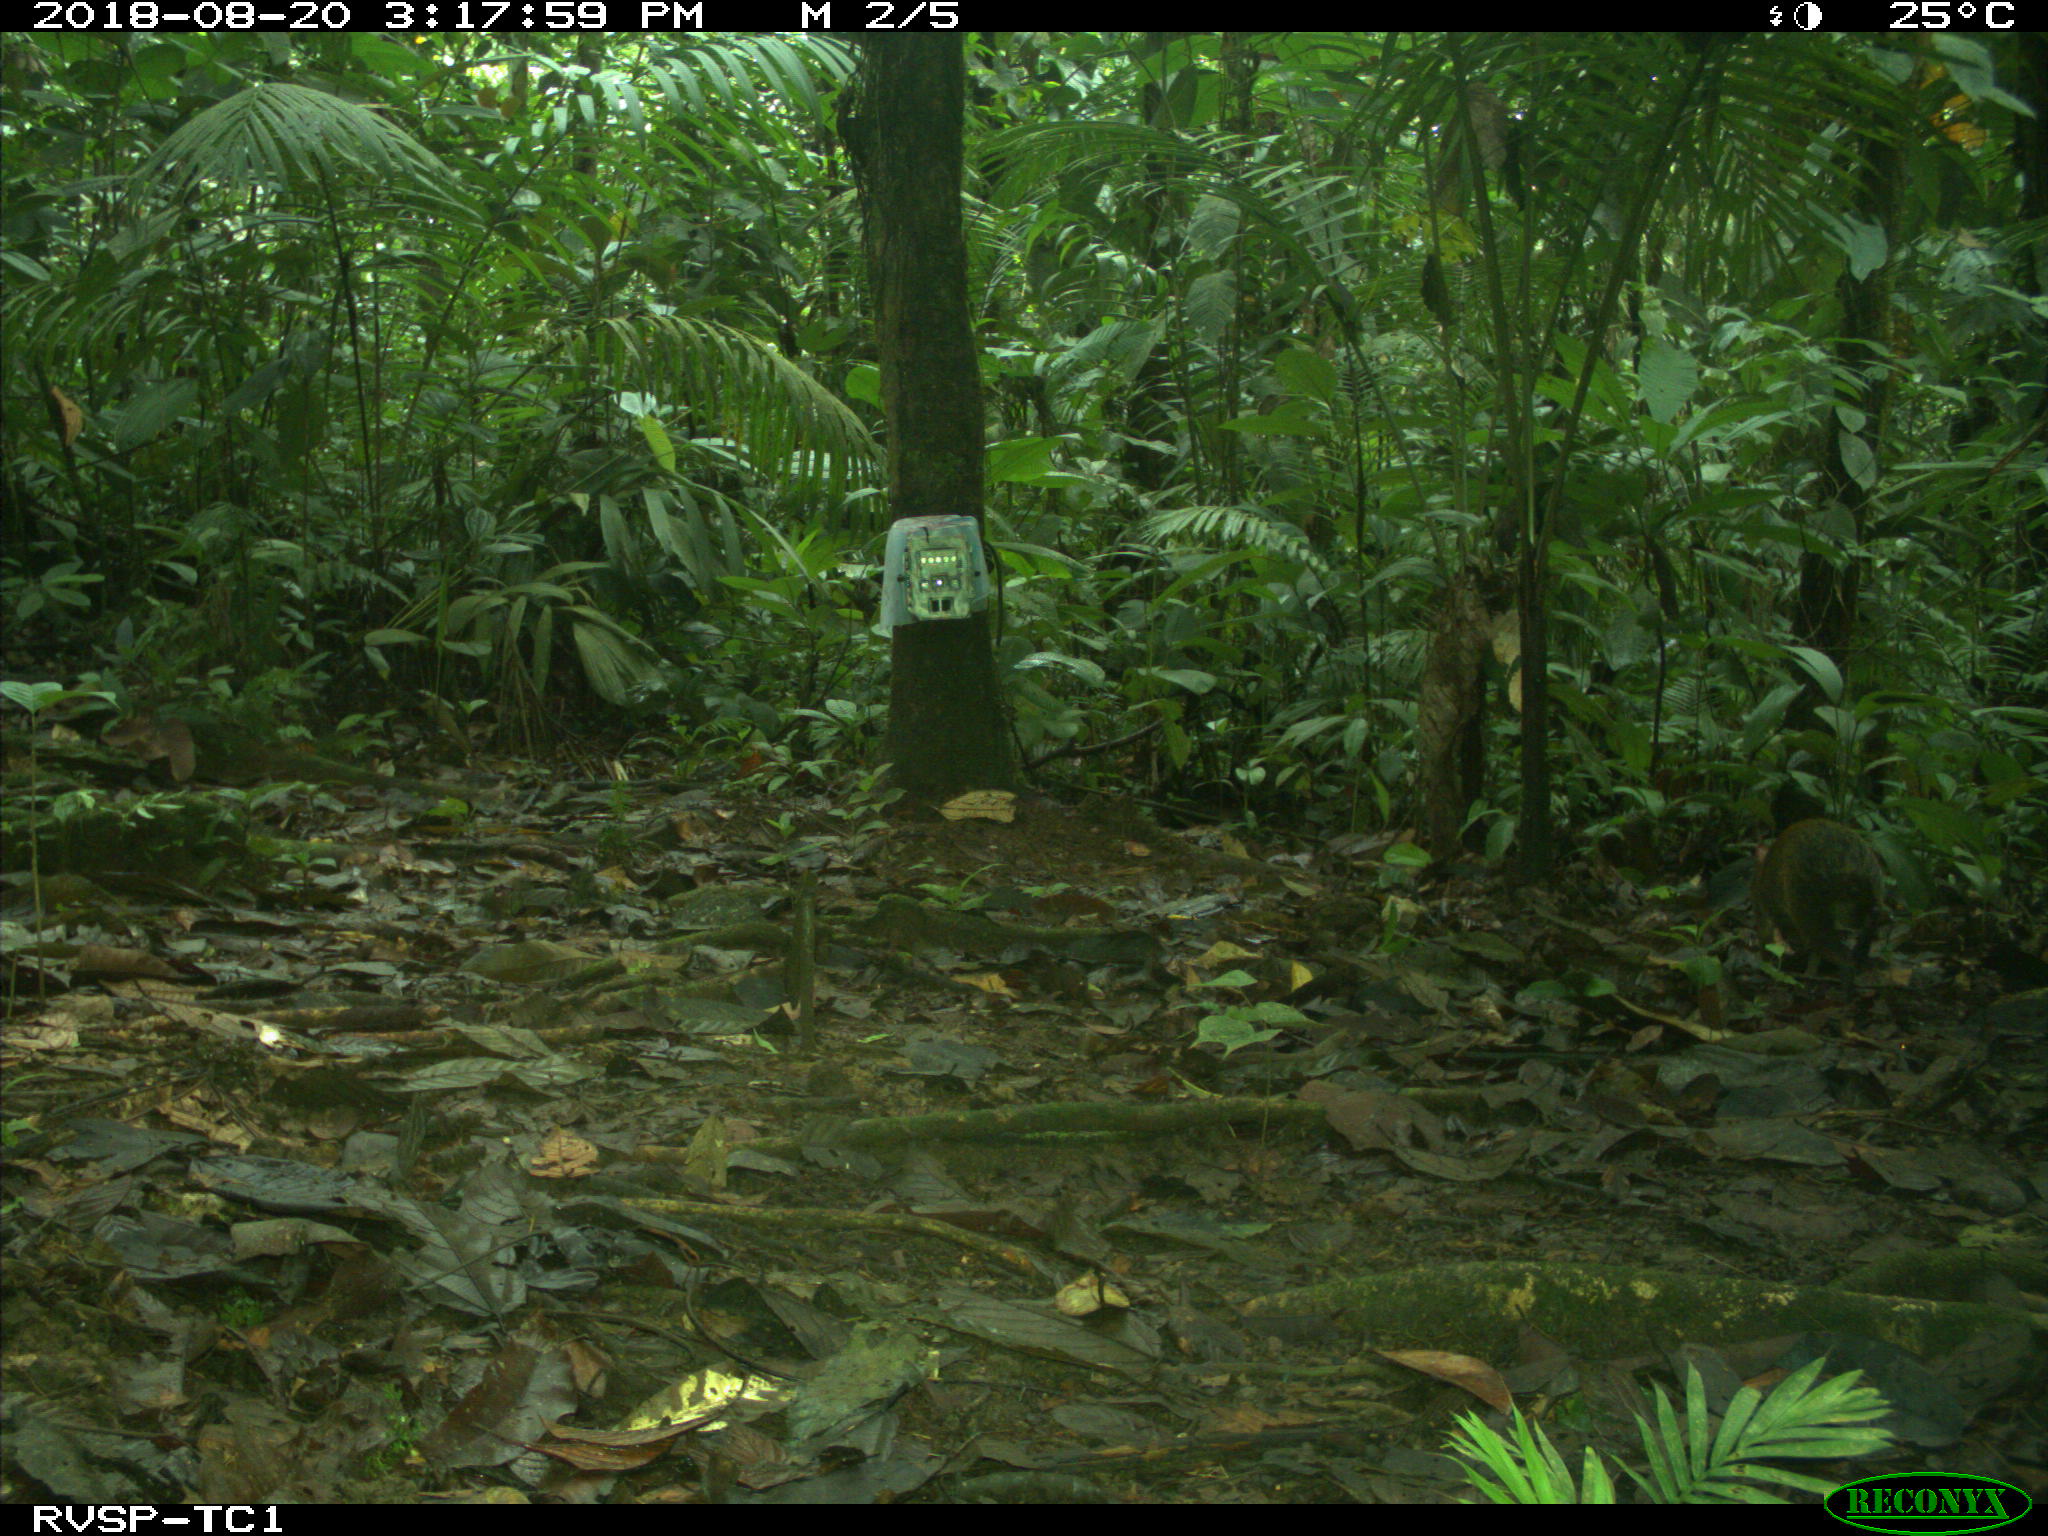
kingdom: Animalia
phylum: Chordata
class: Mammalia
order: Rodentia
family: Dasyproctidae
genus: Dasyprocta
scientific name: Dasyprocta punctata
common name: Central american agouti
